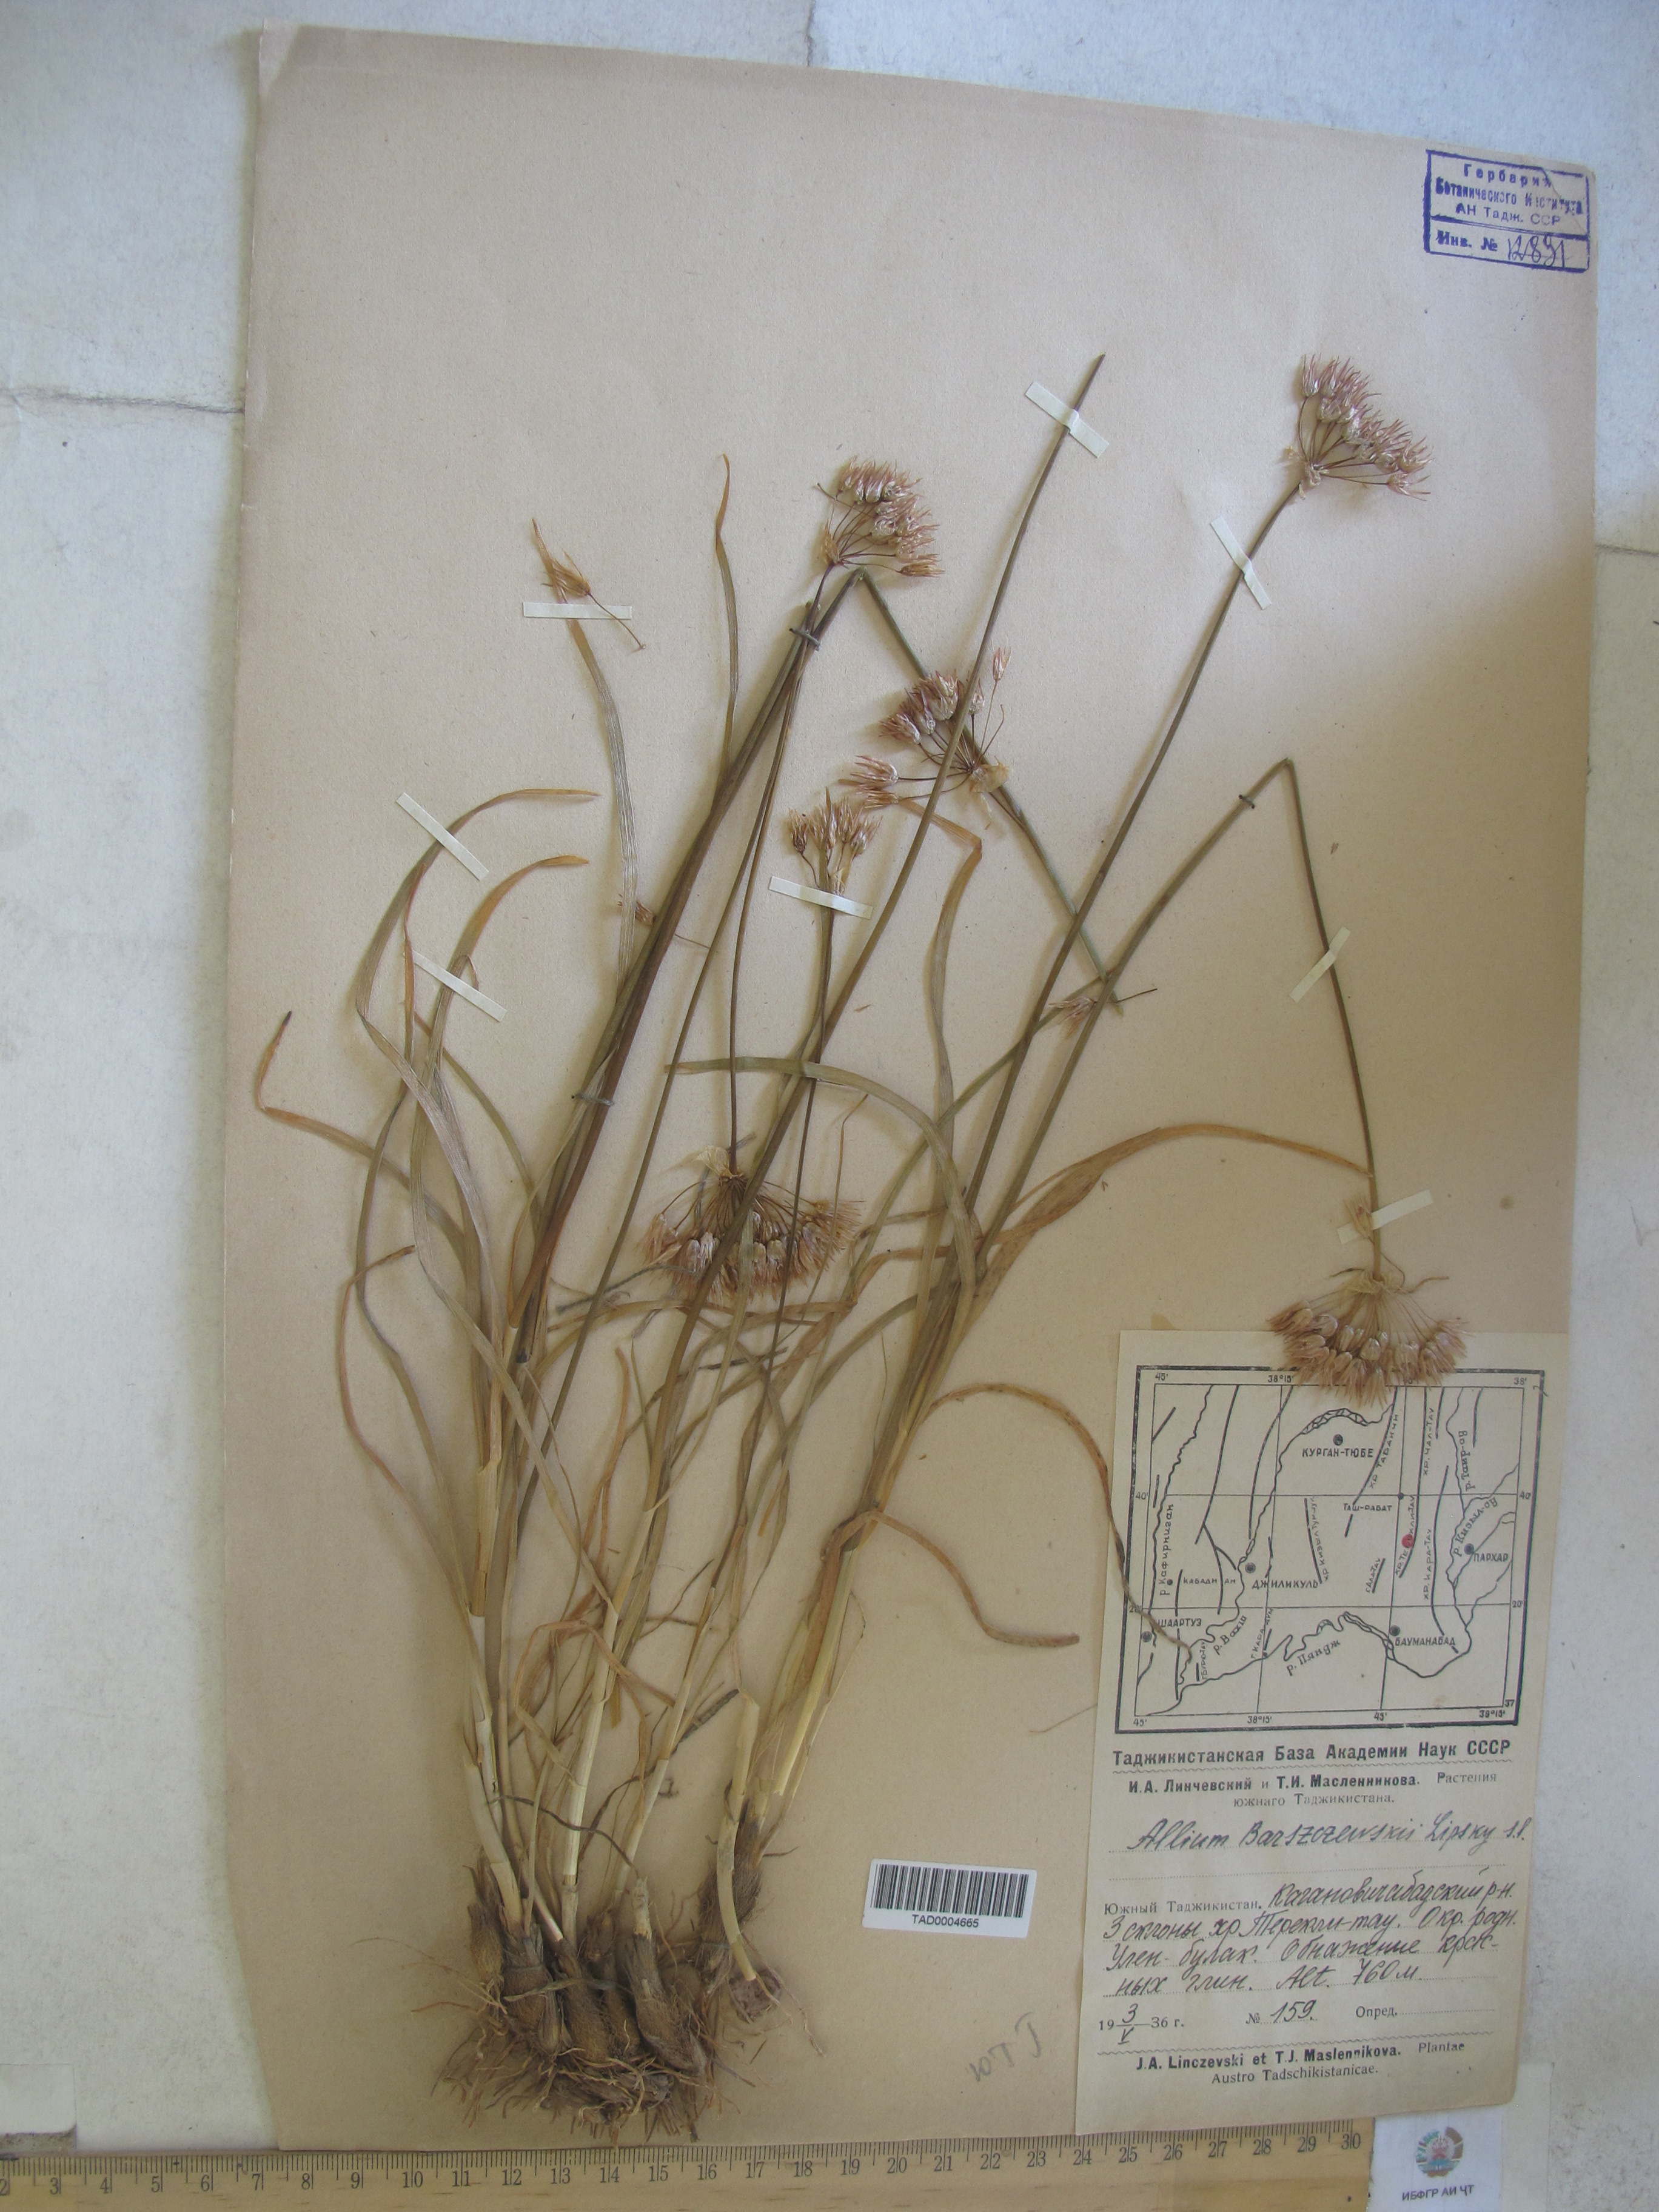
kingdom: Plantae
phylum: Tracheophyta
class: Liliopsida
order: Asparagales
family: Amaryllidaceae
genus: Allium
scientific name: Allium barsczewskii
